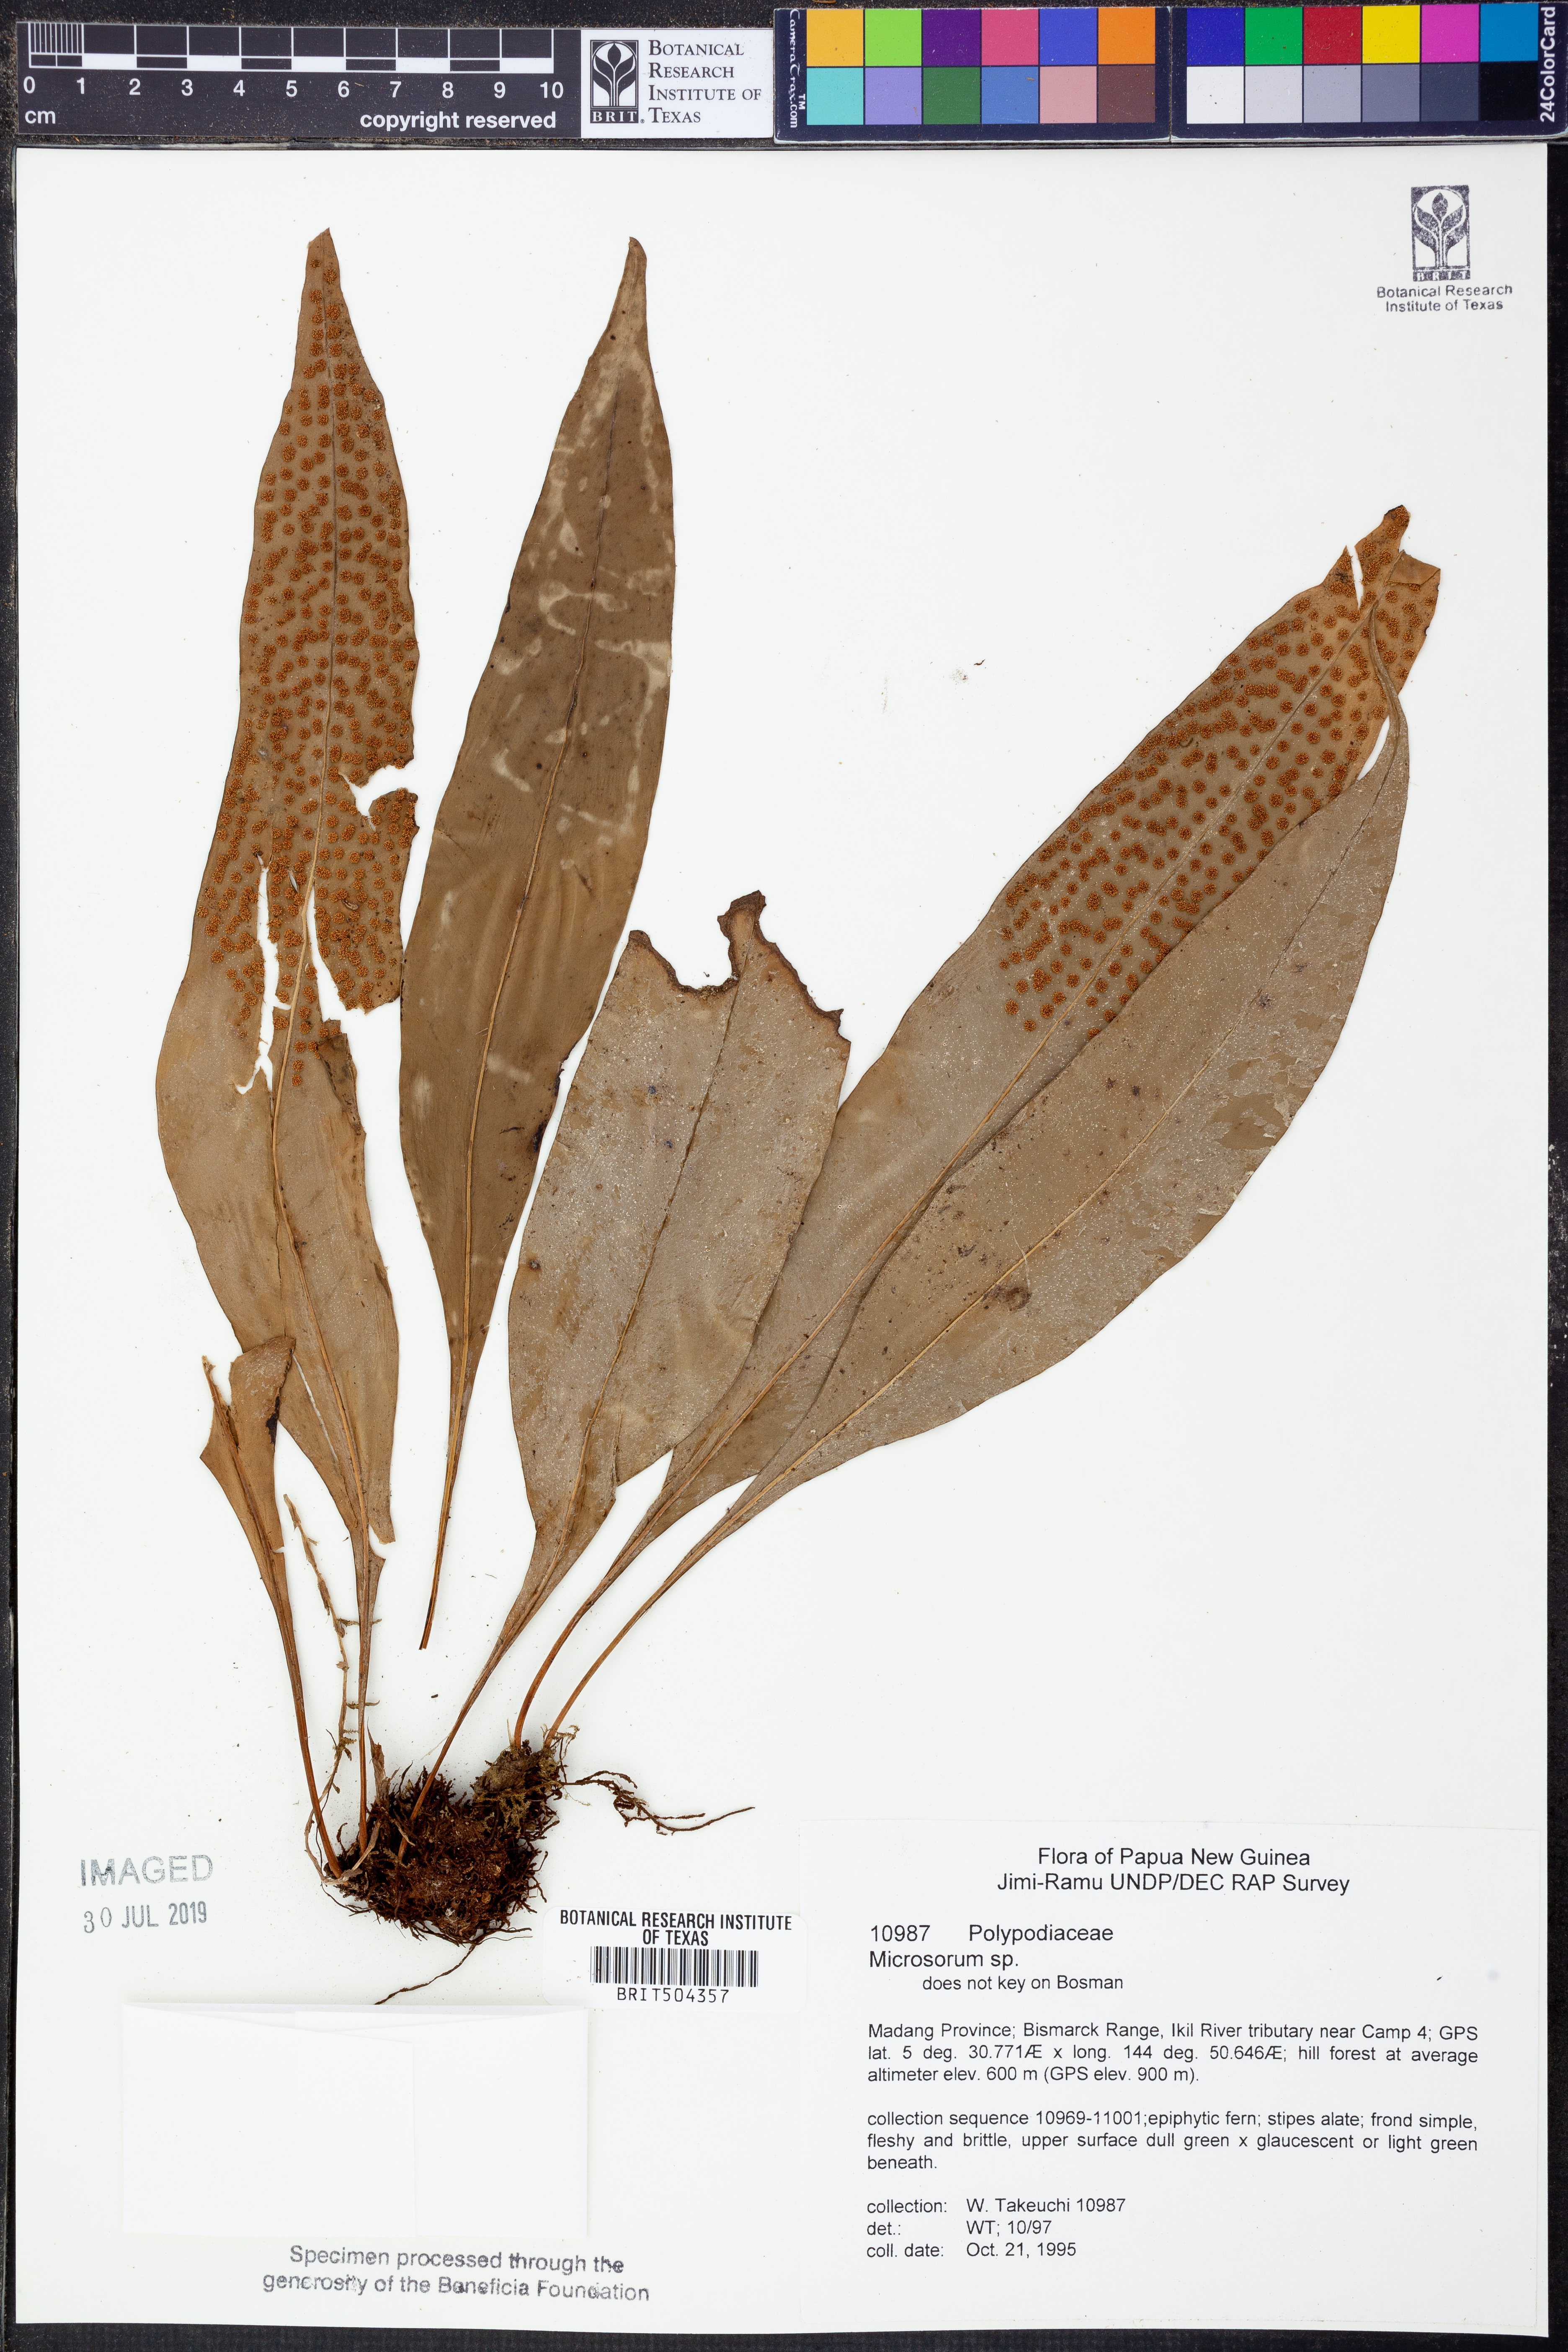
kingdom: Plantae
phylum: Tracheophyta
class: Polypodiopsida
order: Polypodiales
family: Polypodiaceae
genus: Microsorum
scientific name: Microsorum
